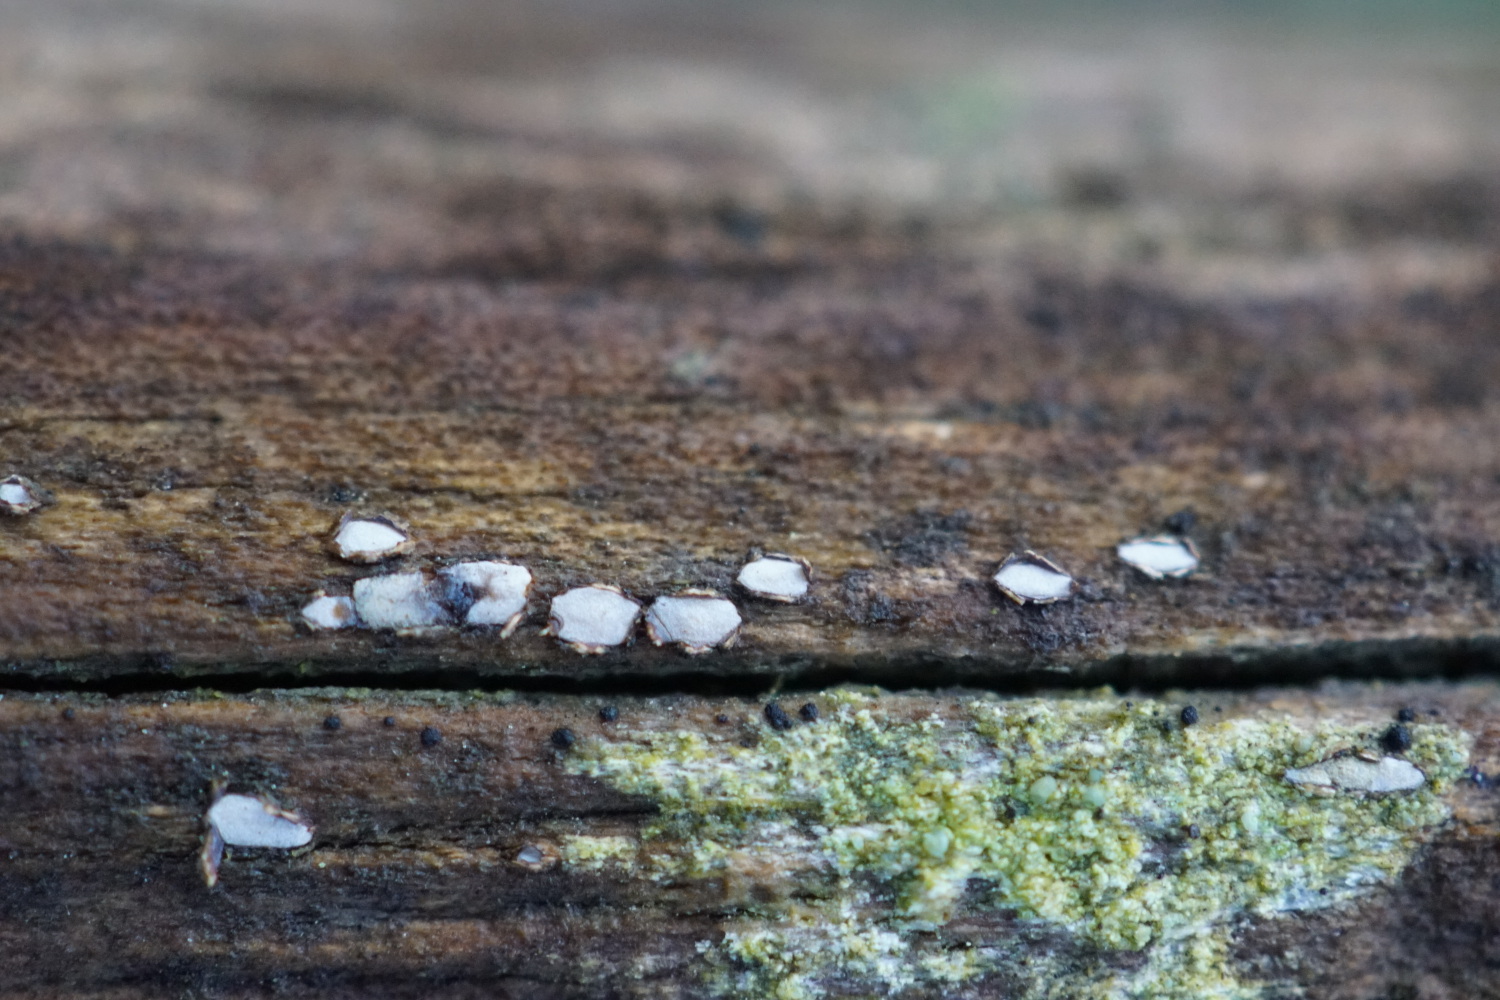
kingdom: Fungi
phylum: Ascomycota
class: Leotiomycetes
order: Chaetomellales
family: Marthamycetaceae
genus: Propolis
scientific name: Propolis farinosa
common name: almindelig vedsprængerskive
